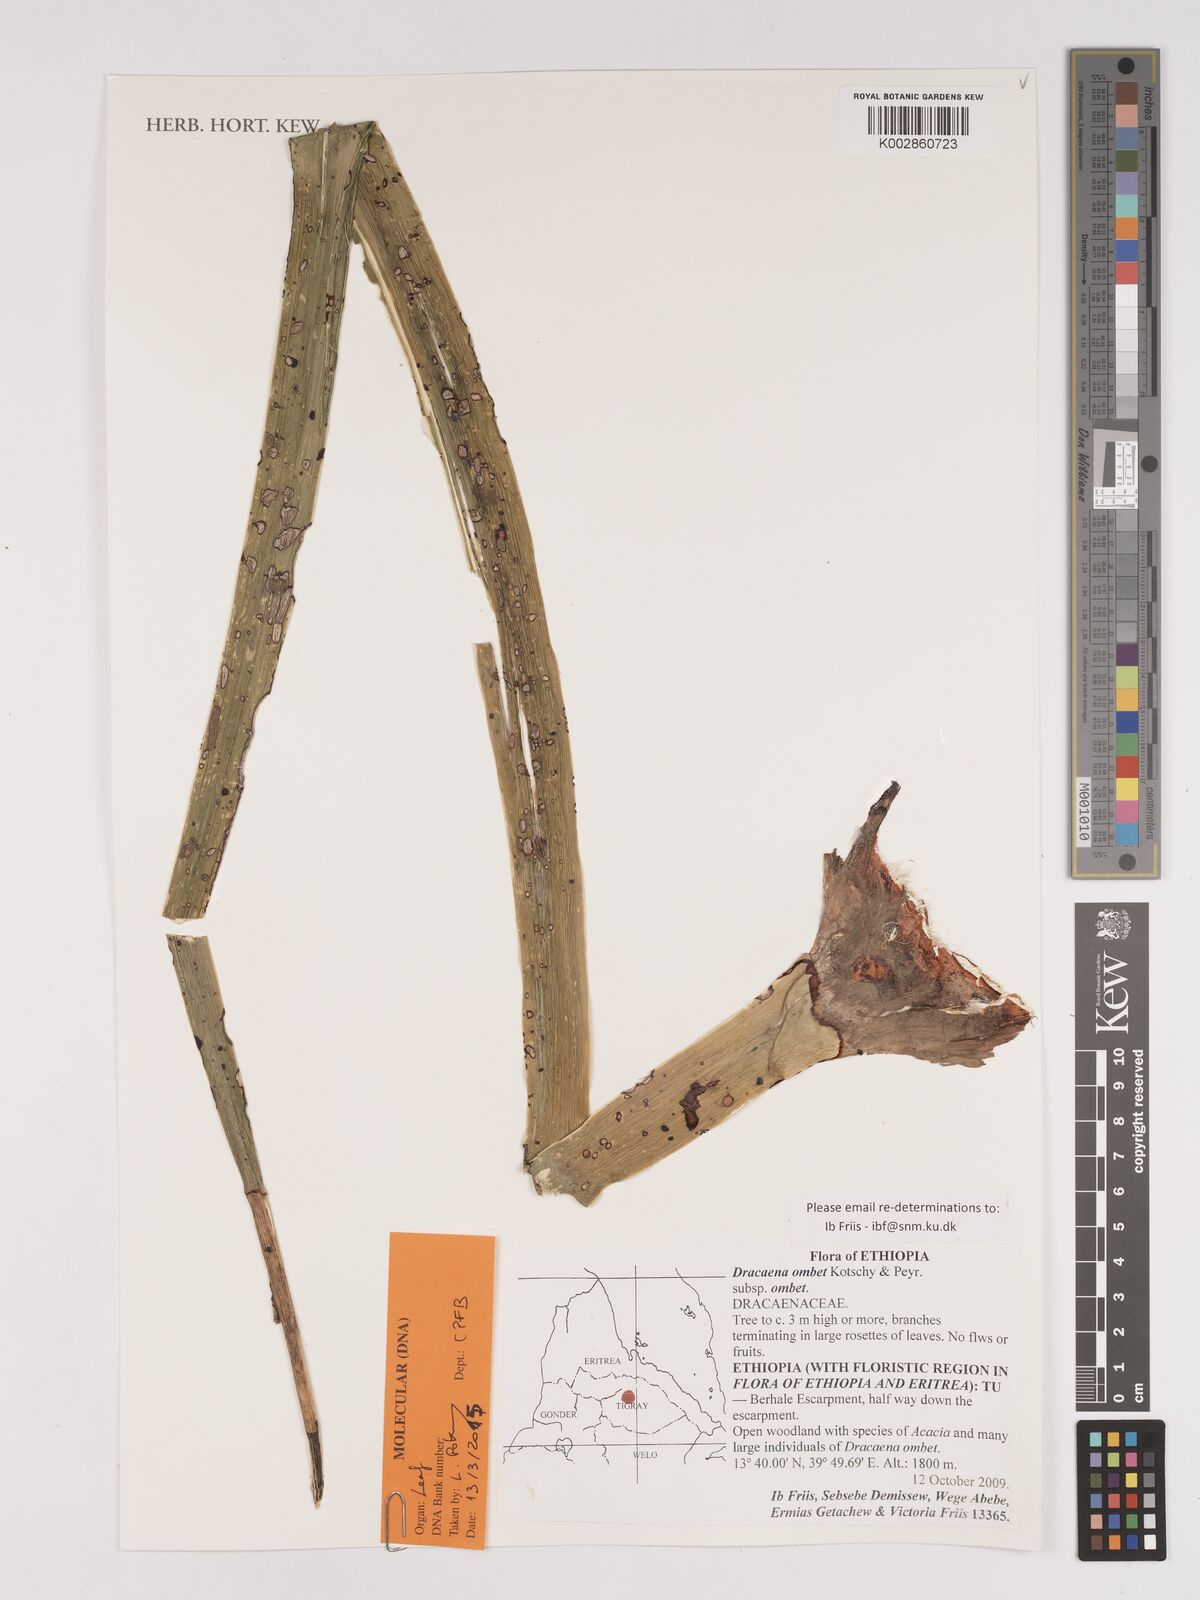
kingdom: Plantae
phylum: Tracheophyta
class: Liliopsida
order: Asparagales
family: Asparagaceae
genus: Dracaena
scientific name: Dracaena ombet
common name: Gabal elba dragon tree
